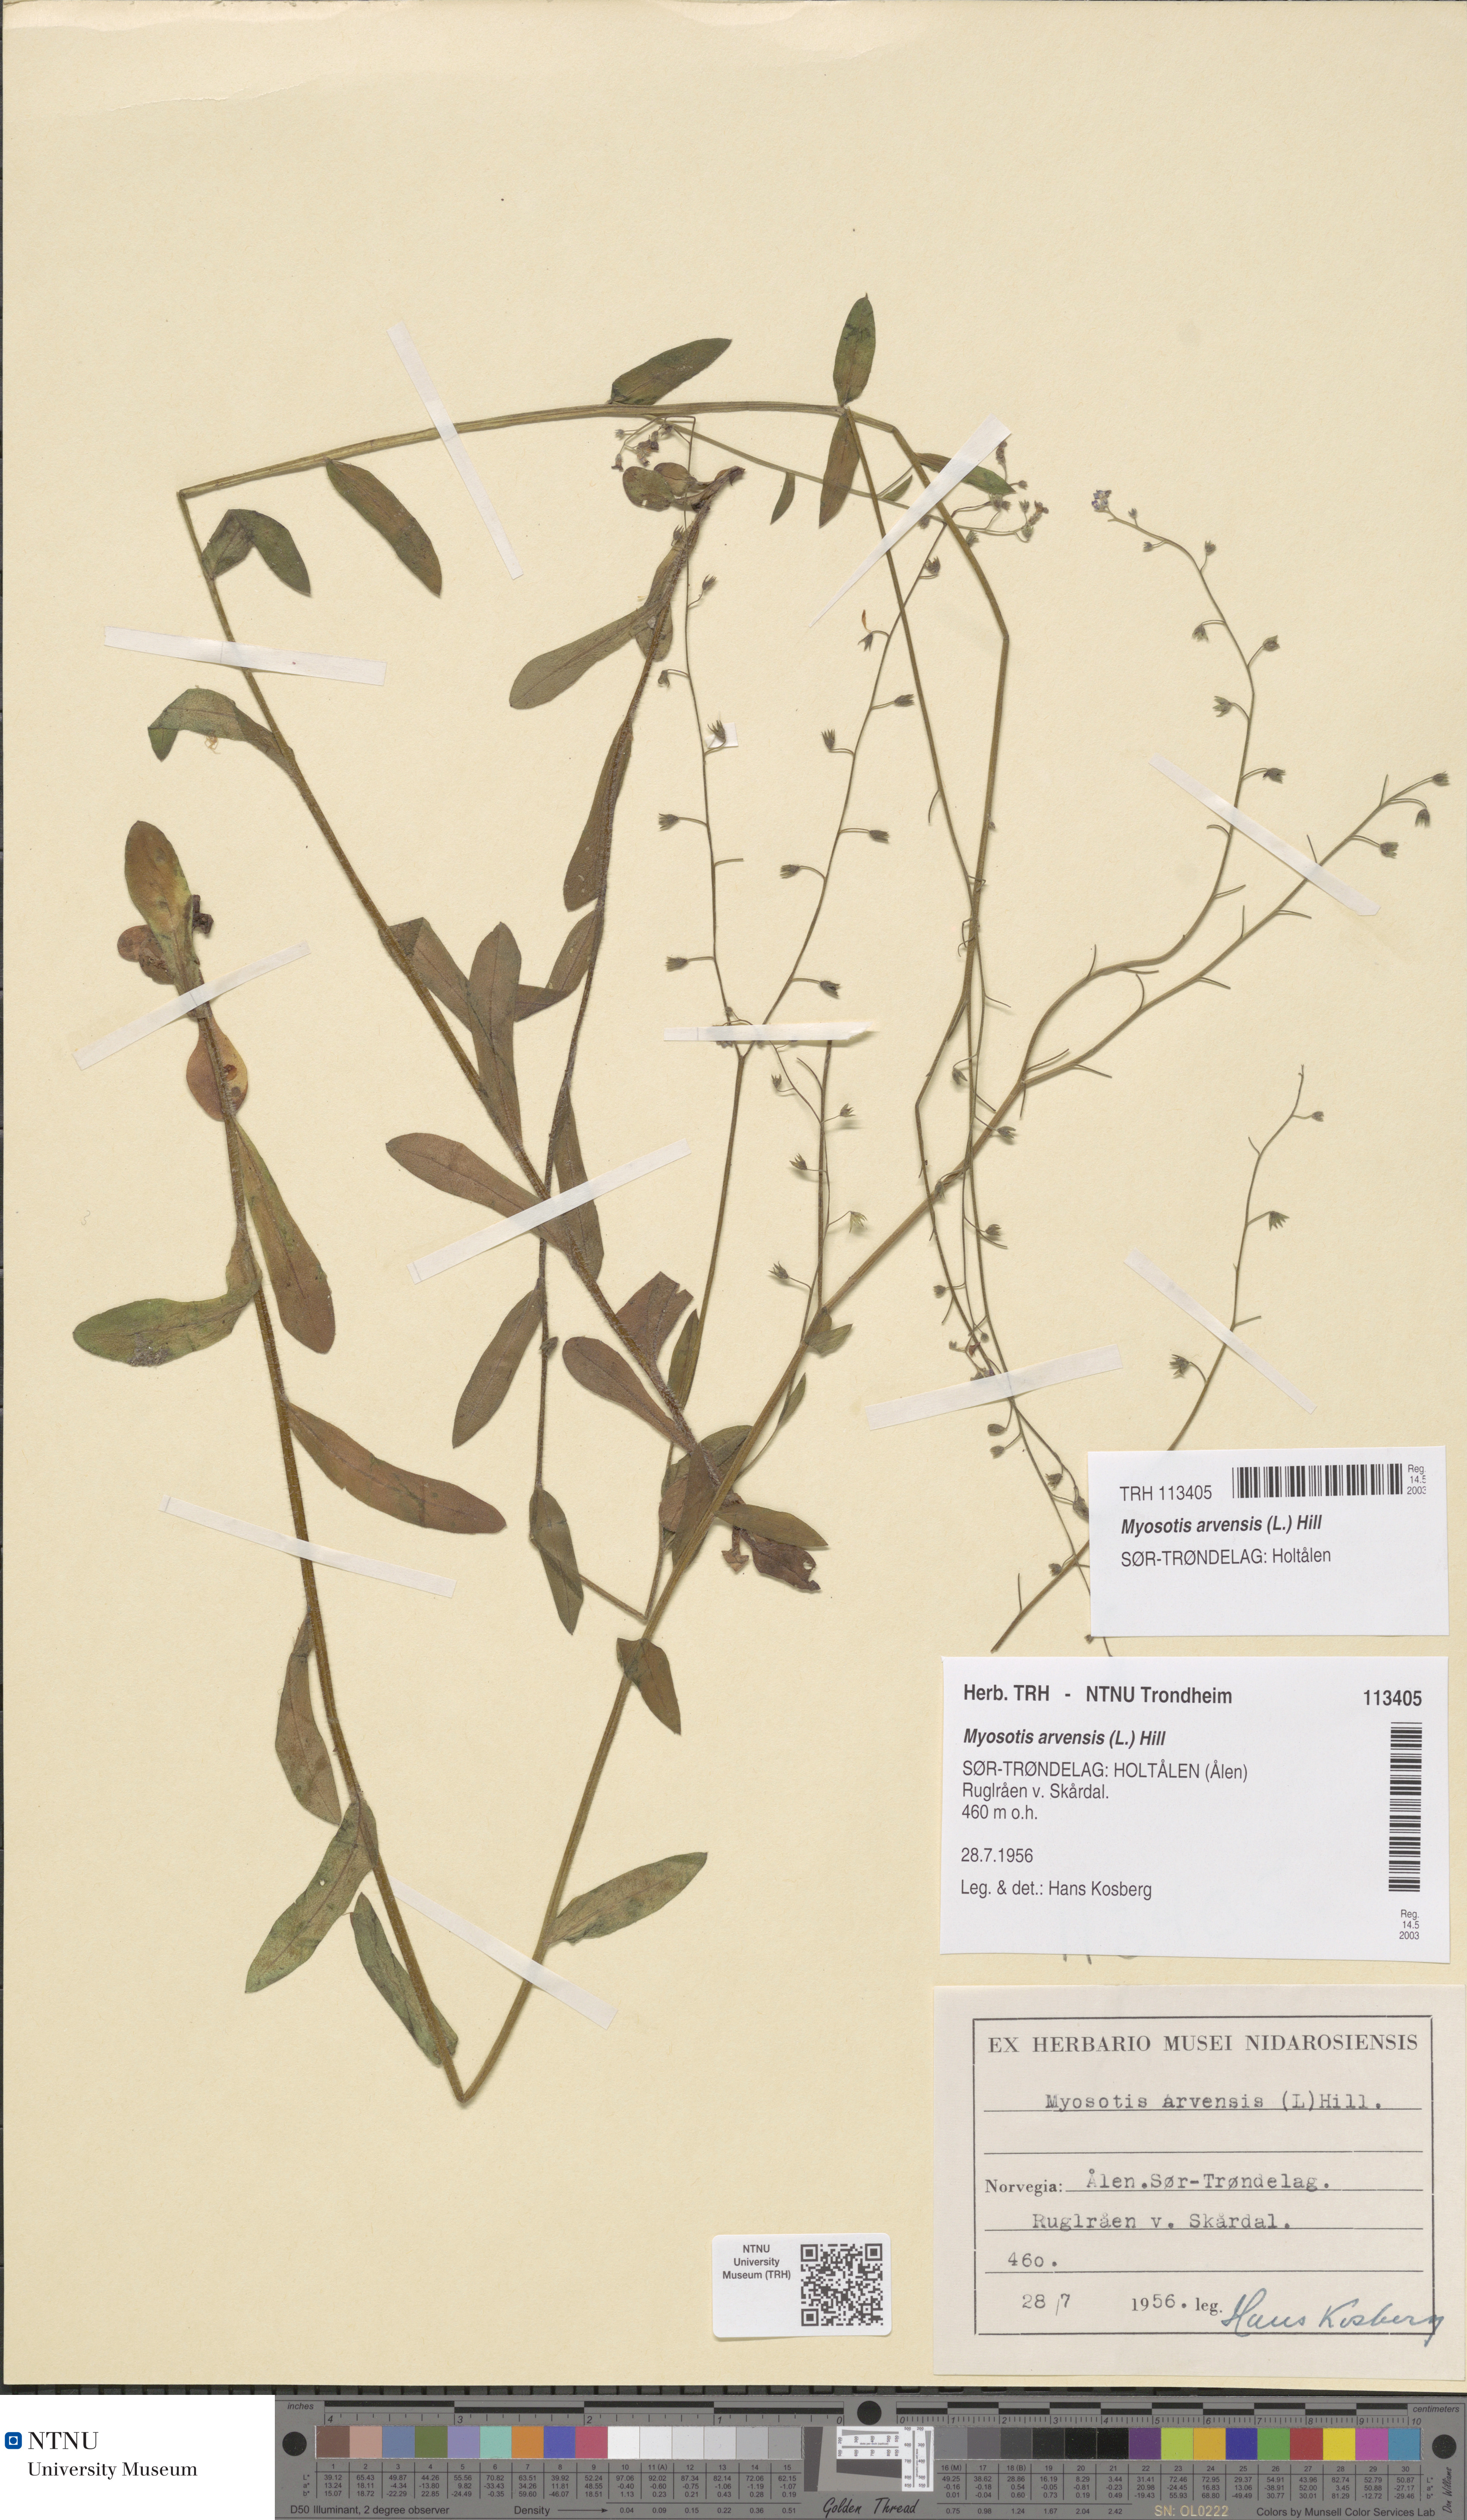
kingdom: Plantae
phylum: Tracheophyta
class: Magnoliopsida
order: Boraginales
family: Boraginaceae
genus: Myosotis
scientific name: Myosotis arvensis
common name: Field forget-me-not
